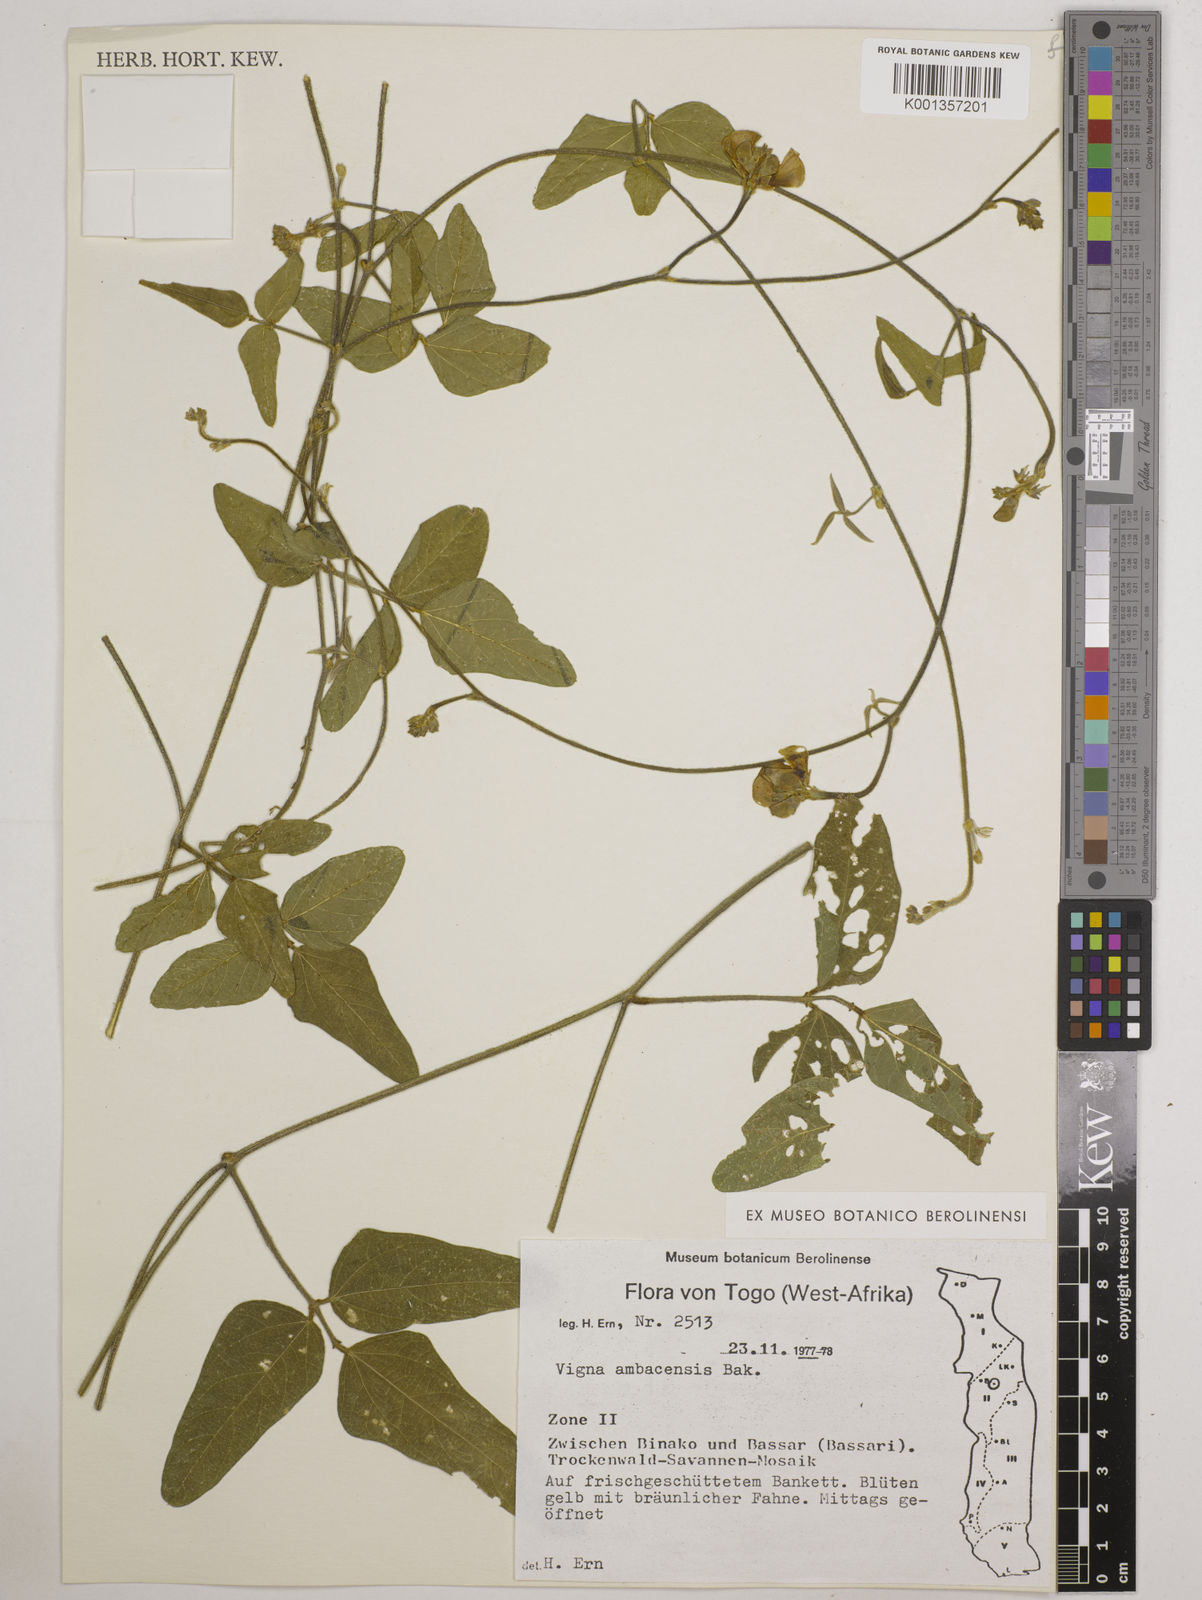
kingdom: Plantae
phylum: Tracheophyta
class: Magnoliopsida
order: Fabales
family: Fabaceae
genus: Vigna
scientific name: Vigna ambacensis
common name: Tsarkiyan zomo
